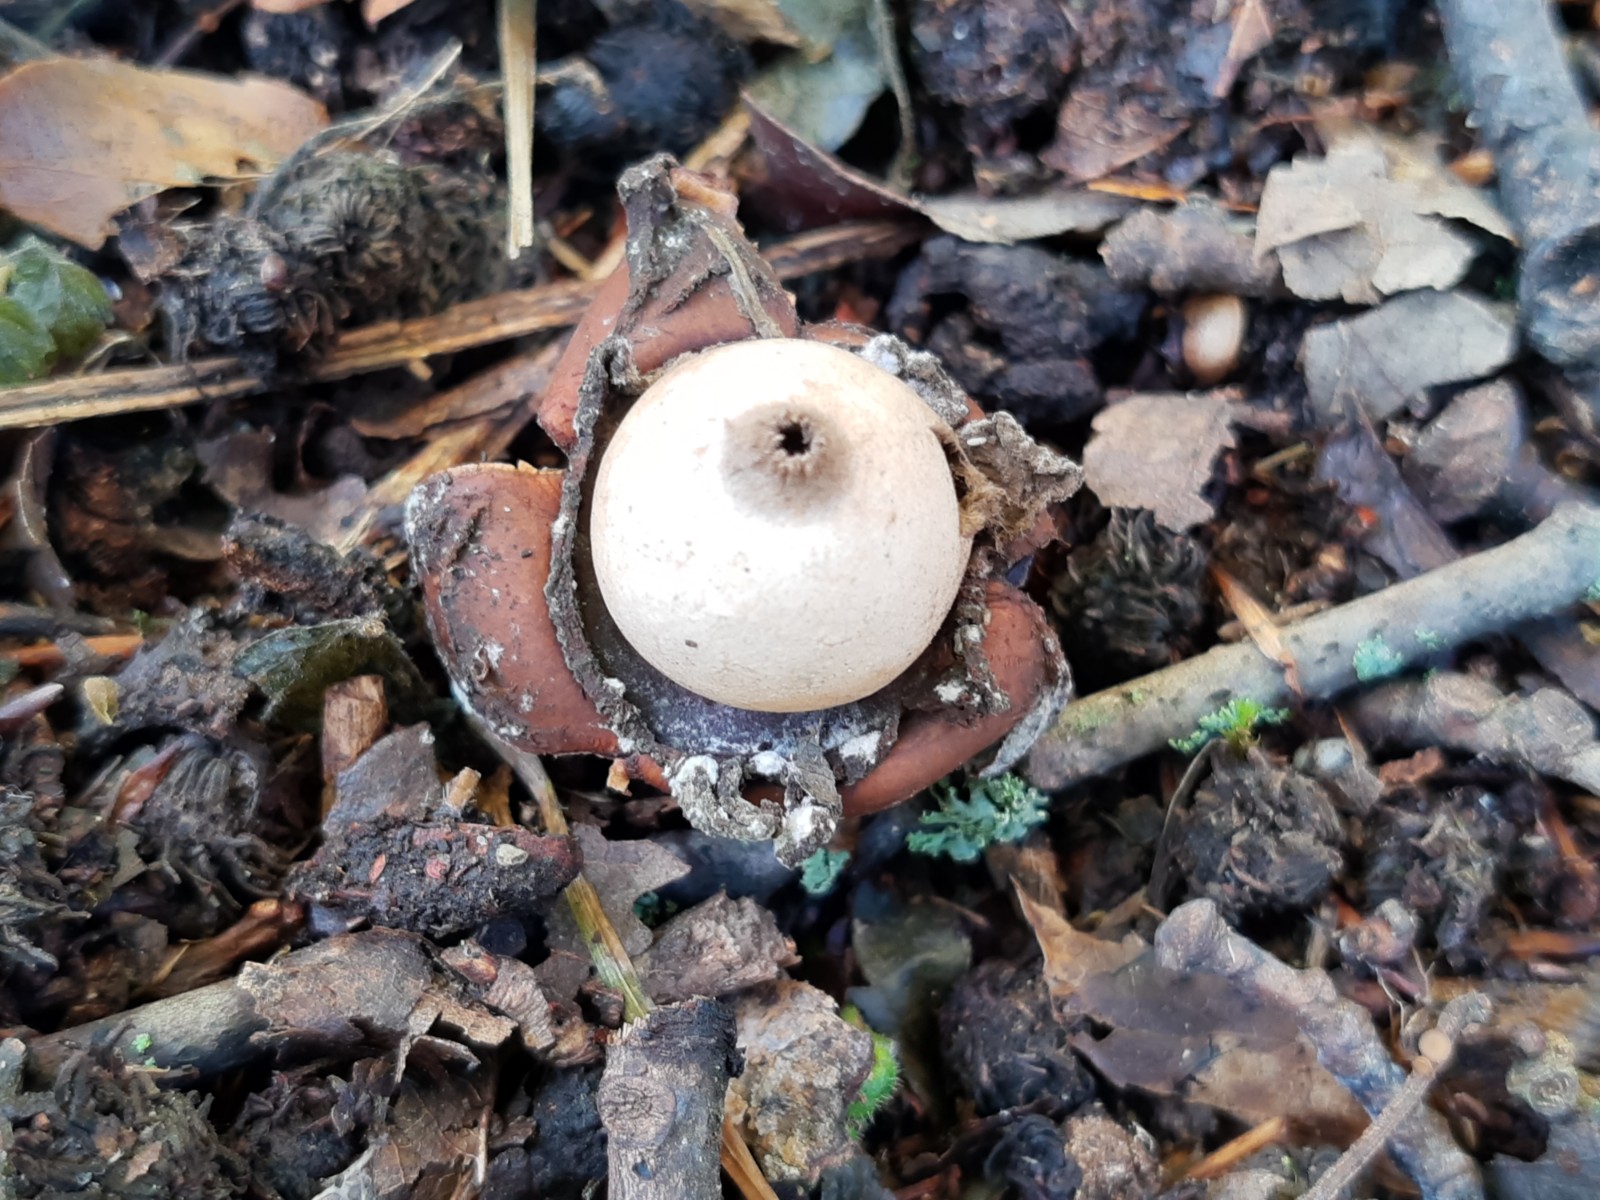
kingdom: Fungi
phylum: Basidiomycota
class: Agaricomycetes
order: Geastrales
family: Geastraceae
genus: Geastrum
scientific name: Geastrum michelianum
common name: kødet stjernebold
